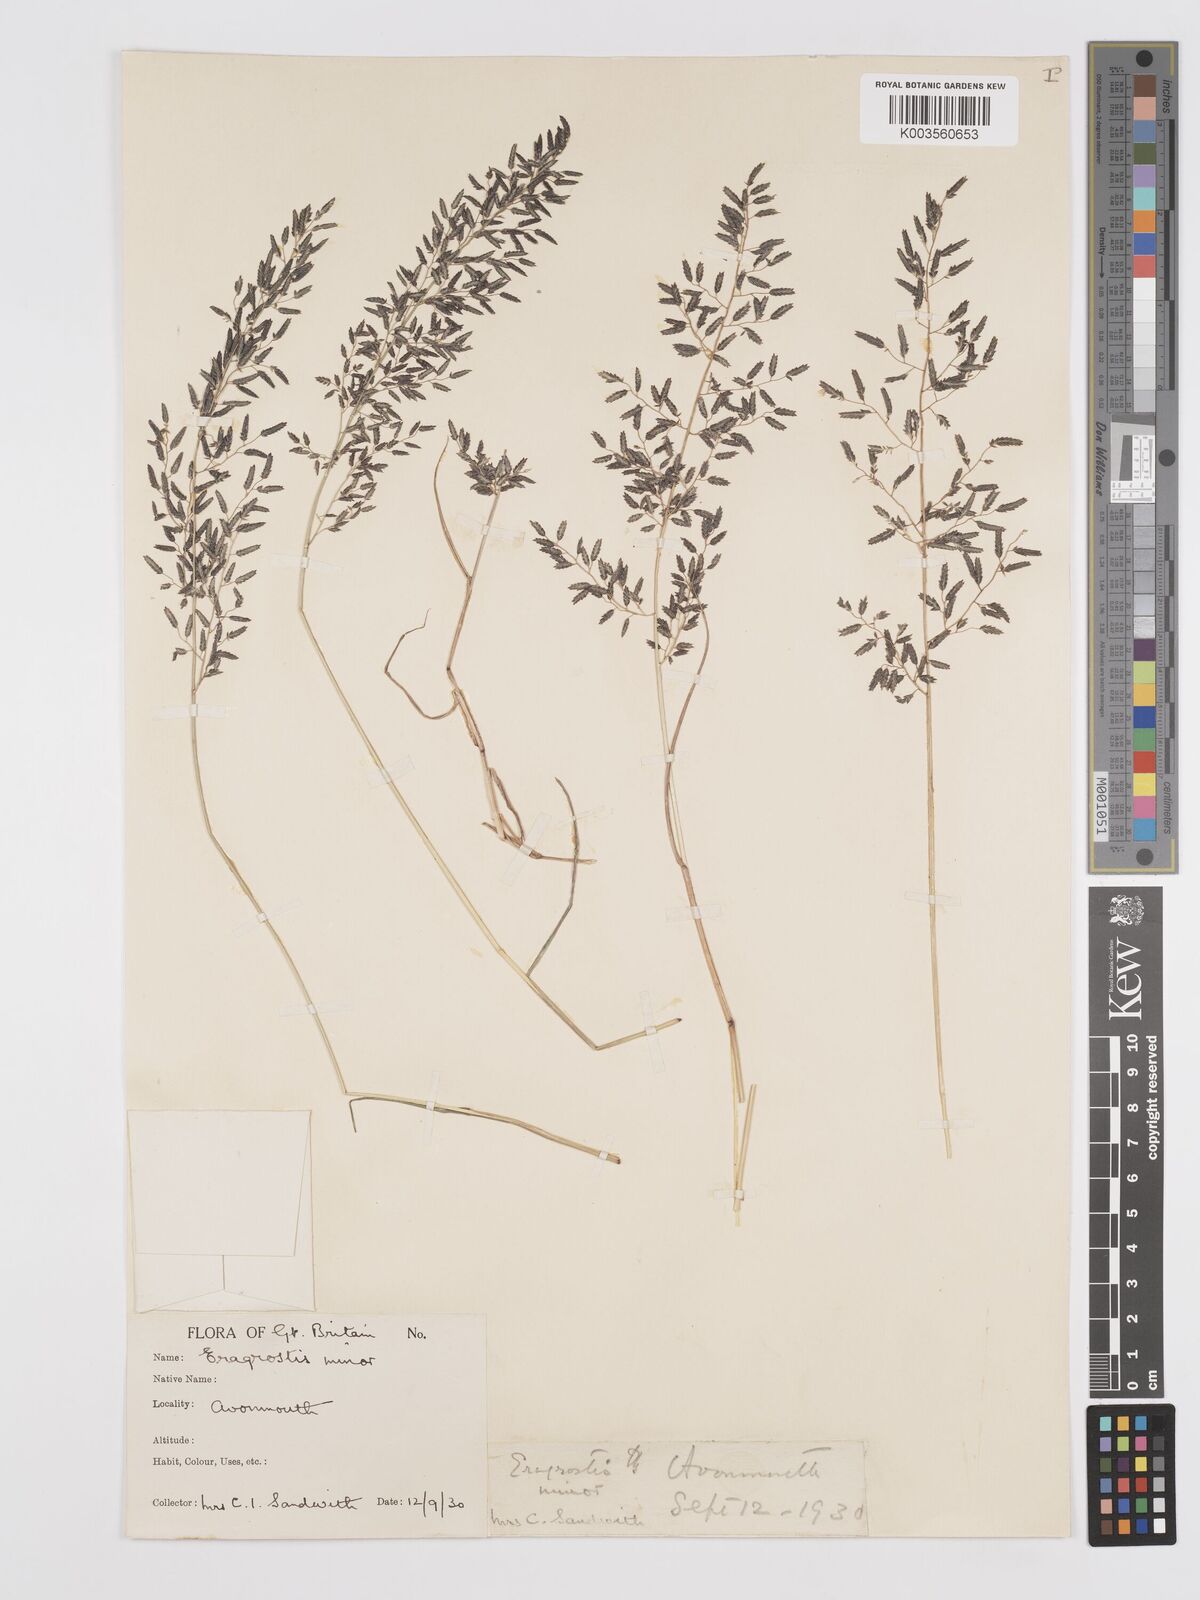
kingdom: Plantae
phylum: Tracheophyta
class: Liliopsida
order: Poales
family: Poaceae
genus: Eragrostis
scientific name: Eragrostis minor
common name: Small love-grass
